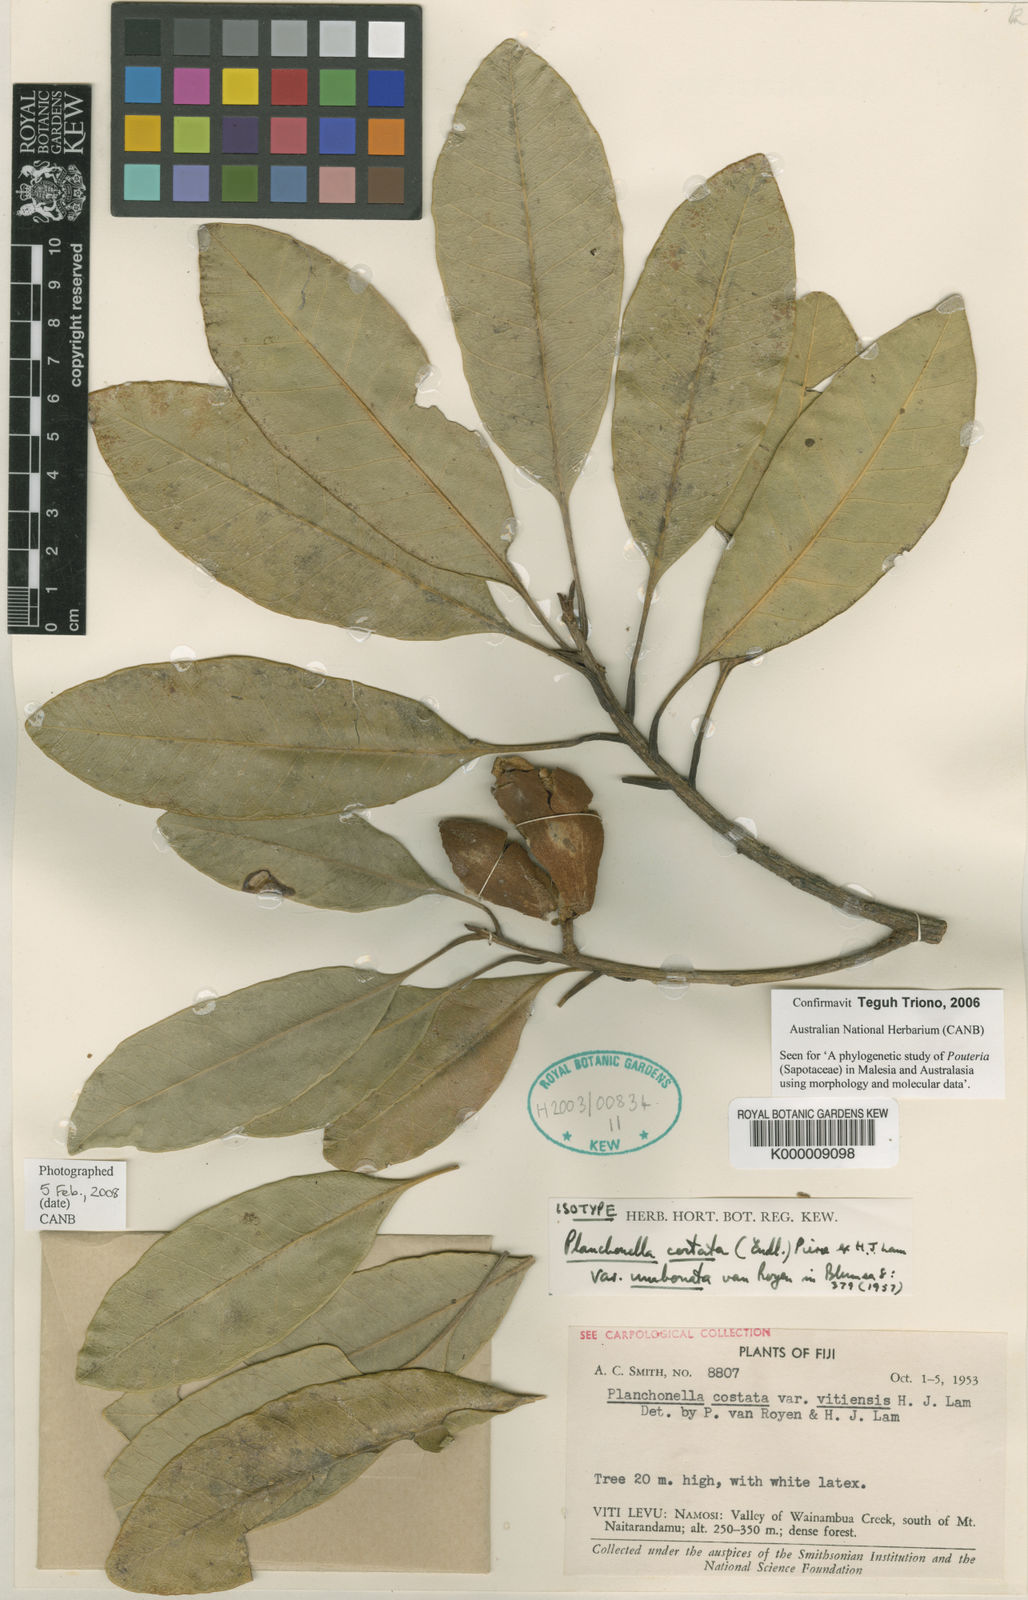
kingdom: Plantae
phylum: Tracheophyta
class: Magnoliopsida
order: Ericales
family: Sapotaceae
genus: Planchonella
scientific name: Planchonella costata
